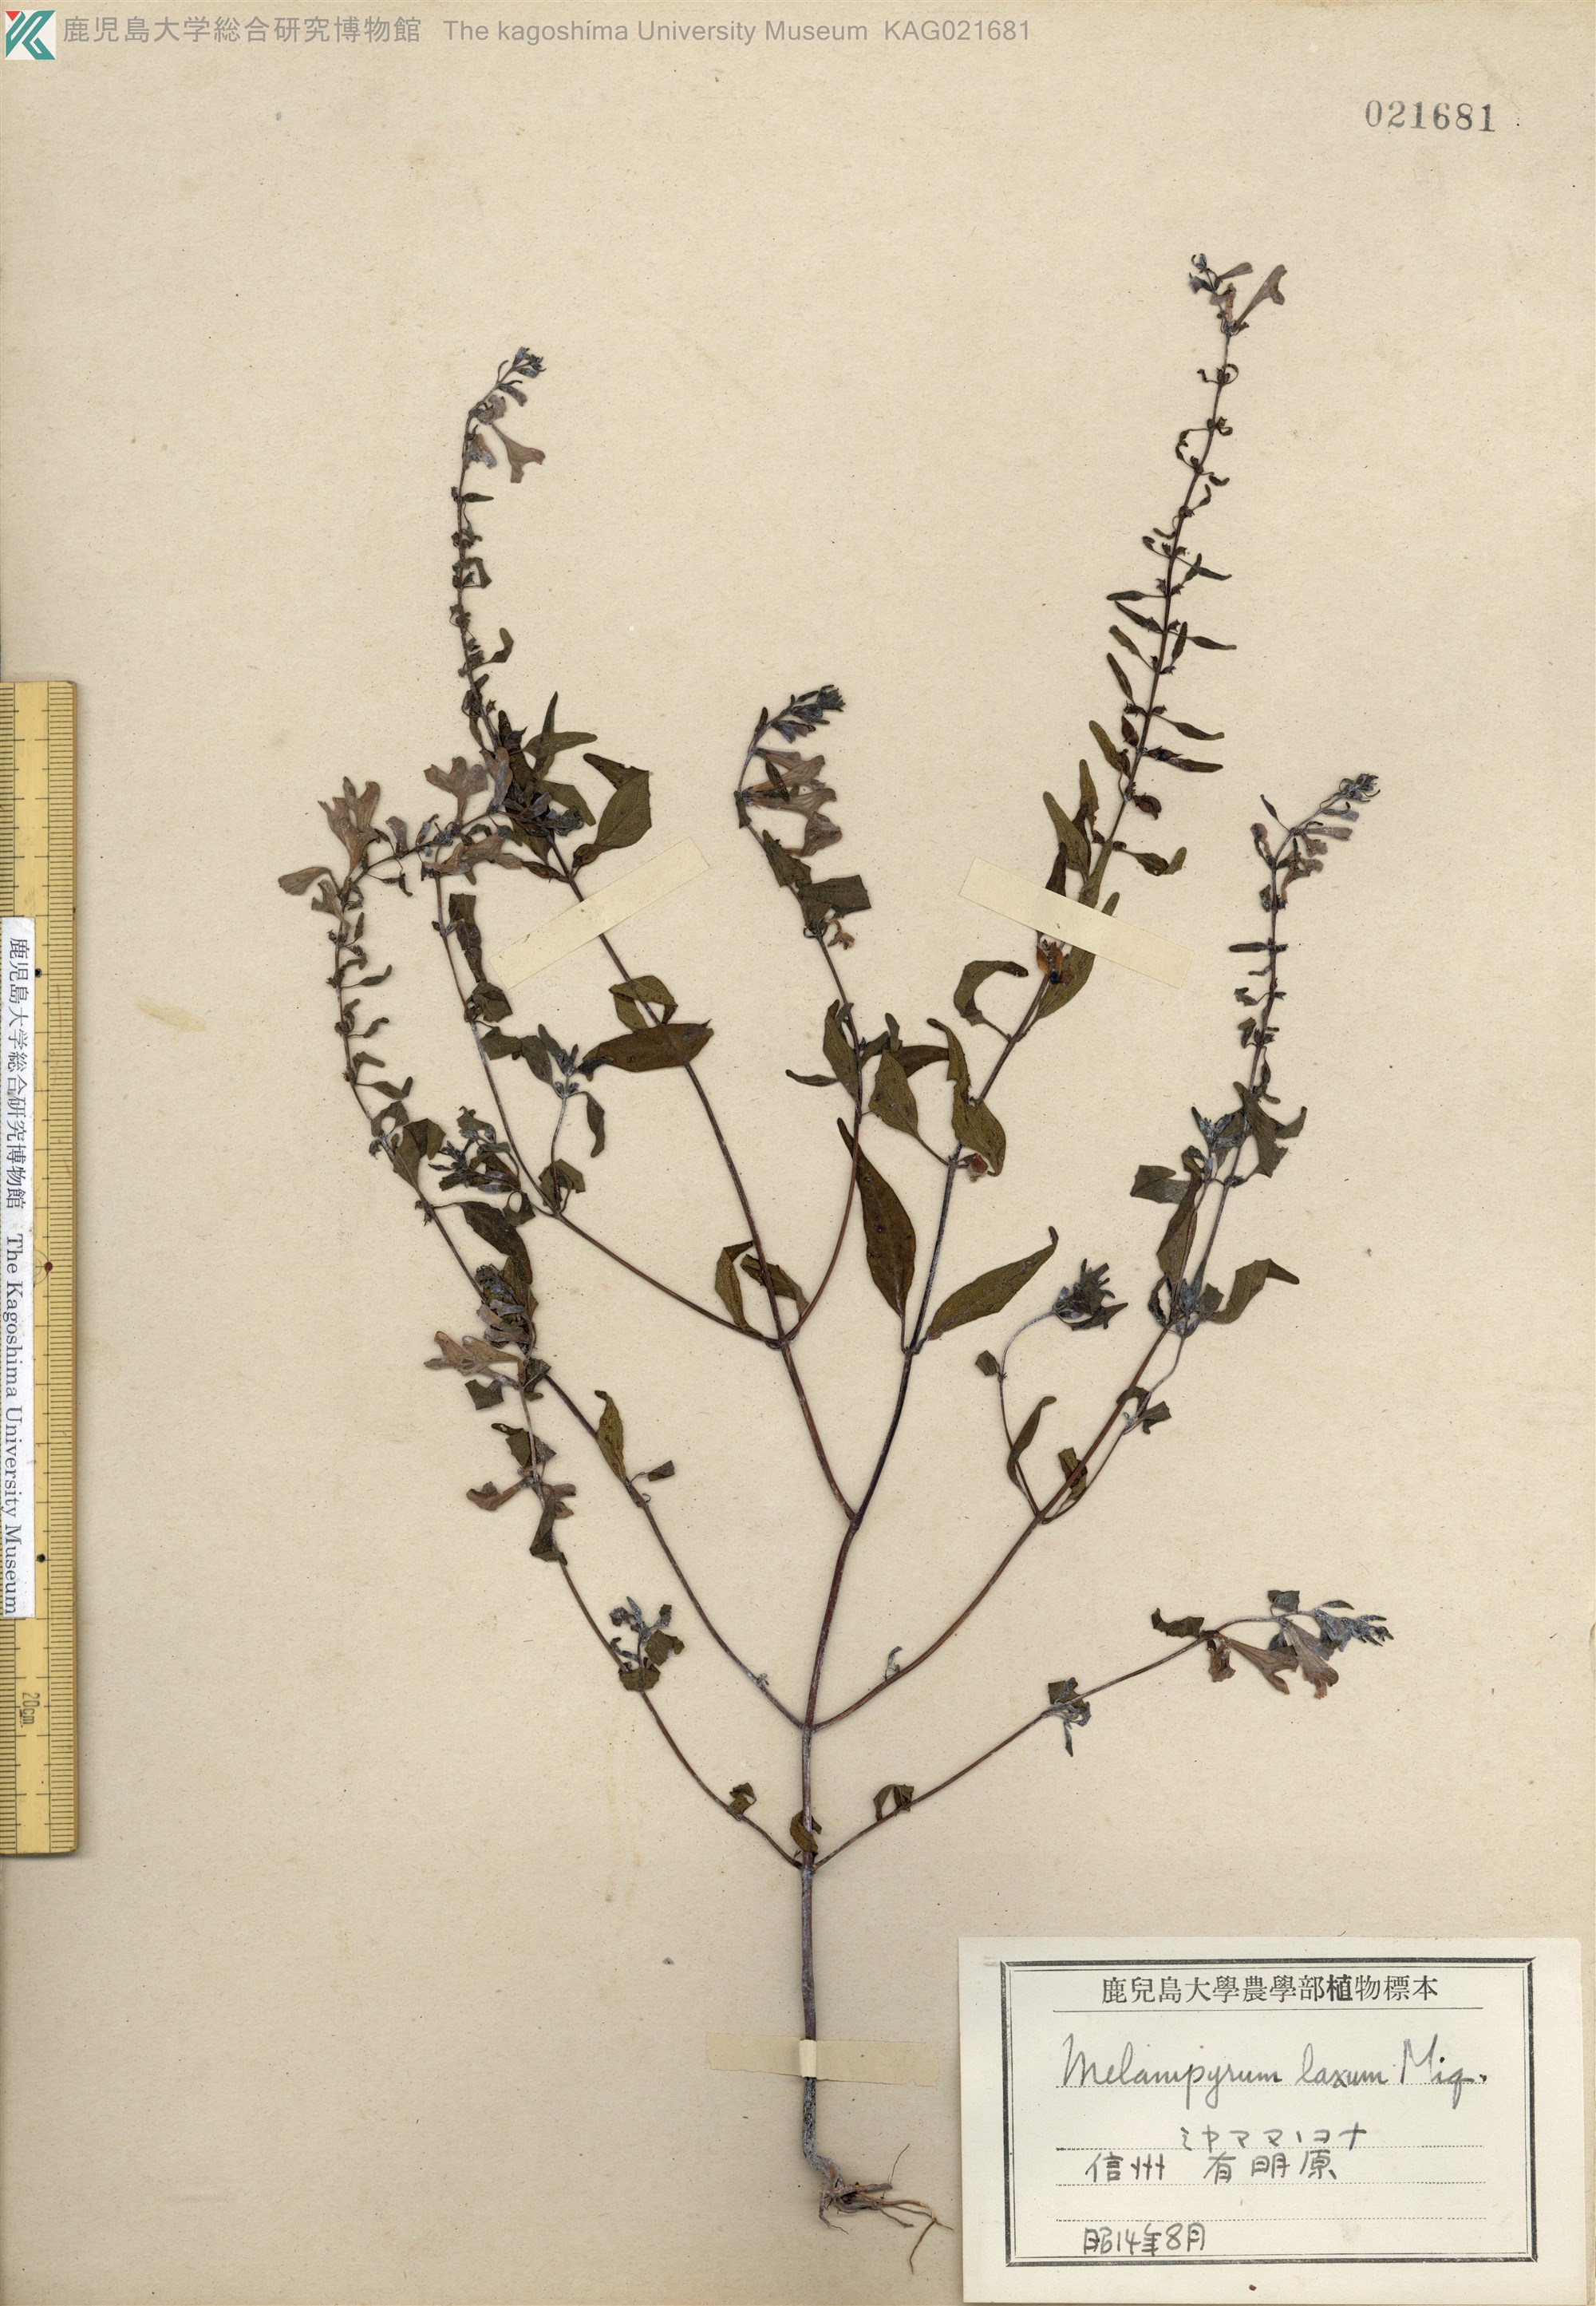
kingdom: Plantae
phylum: Tracheophyta
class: Magnoliopsida
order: Lamiales
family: Orobanchaceae
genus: Melampyrum
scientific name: Melampyrum laxum
